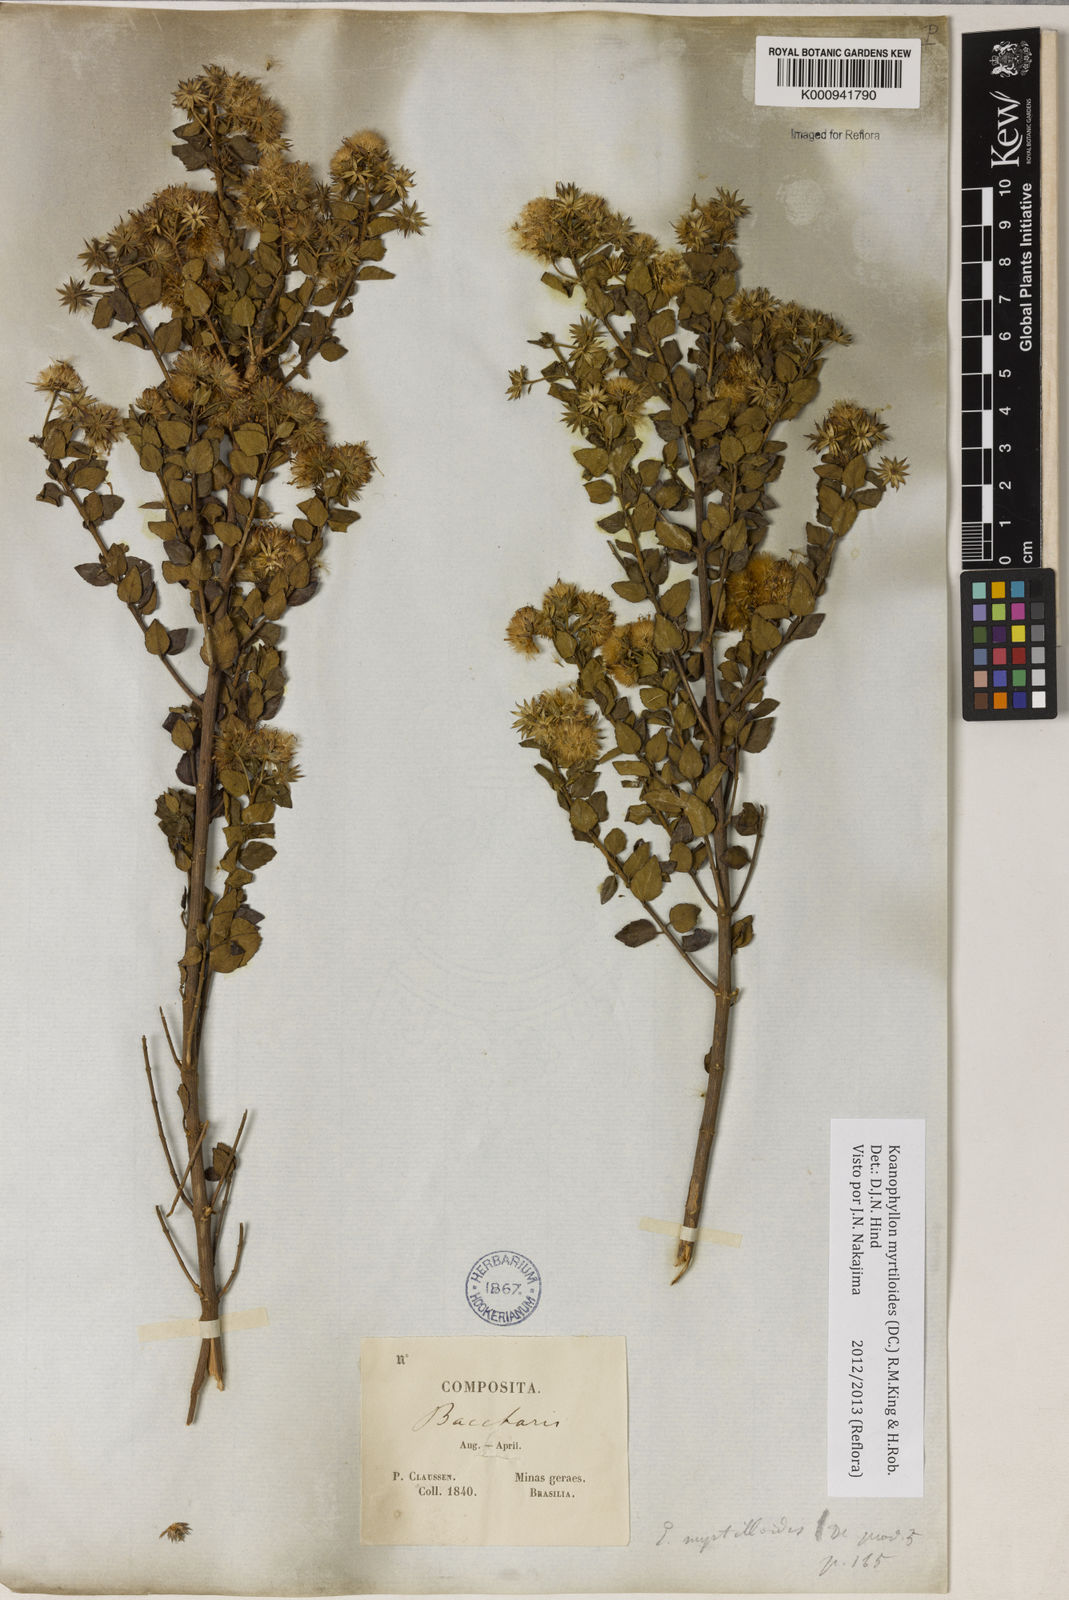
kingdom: Plantae
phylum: Tracheophyta
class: Magnoliopsida
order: Asterales
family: Asteraceae
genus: Koanophyllon
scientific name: Koanophyllon myrtilloides
